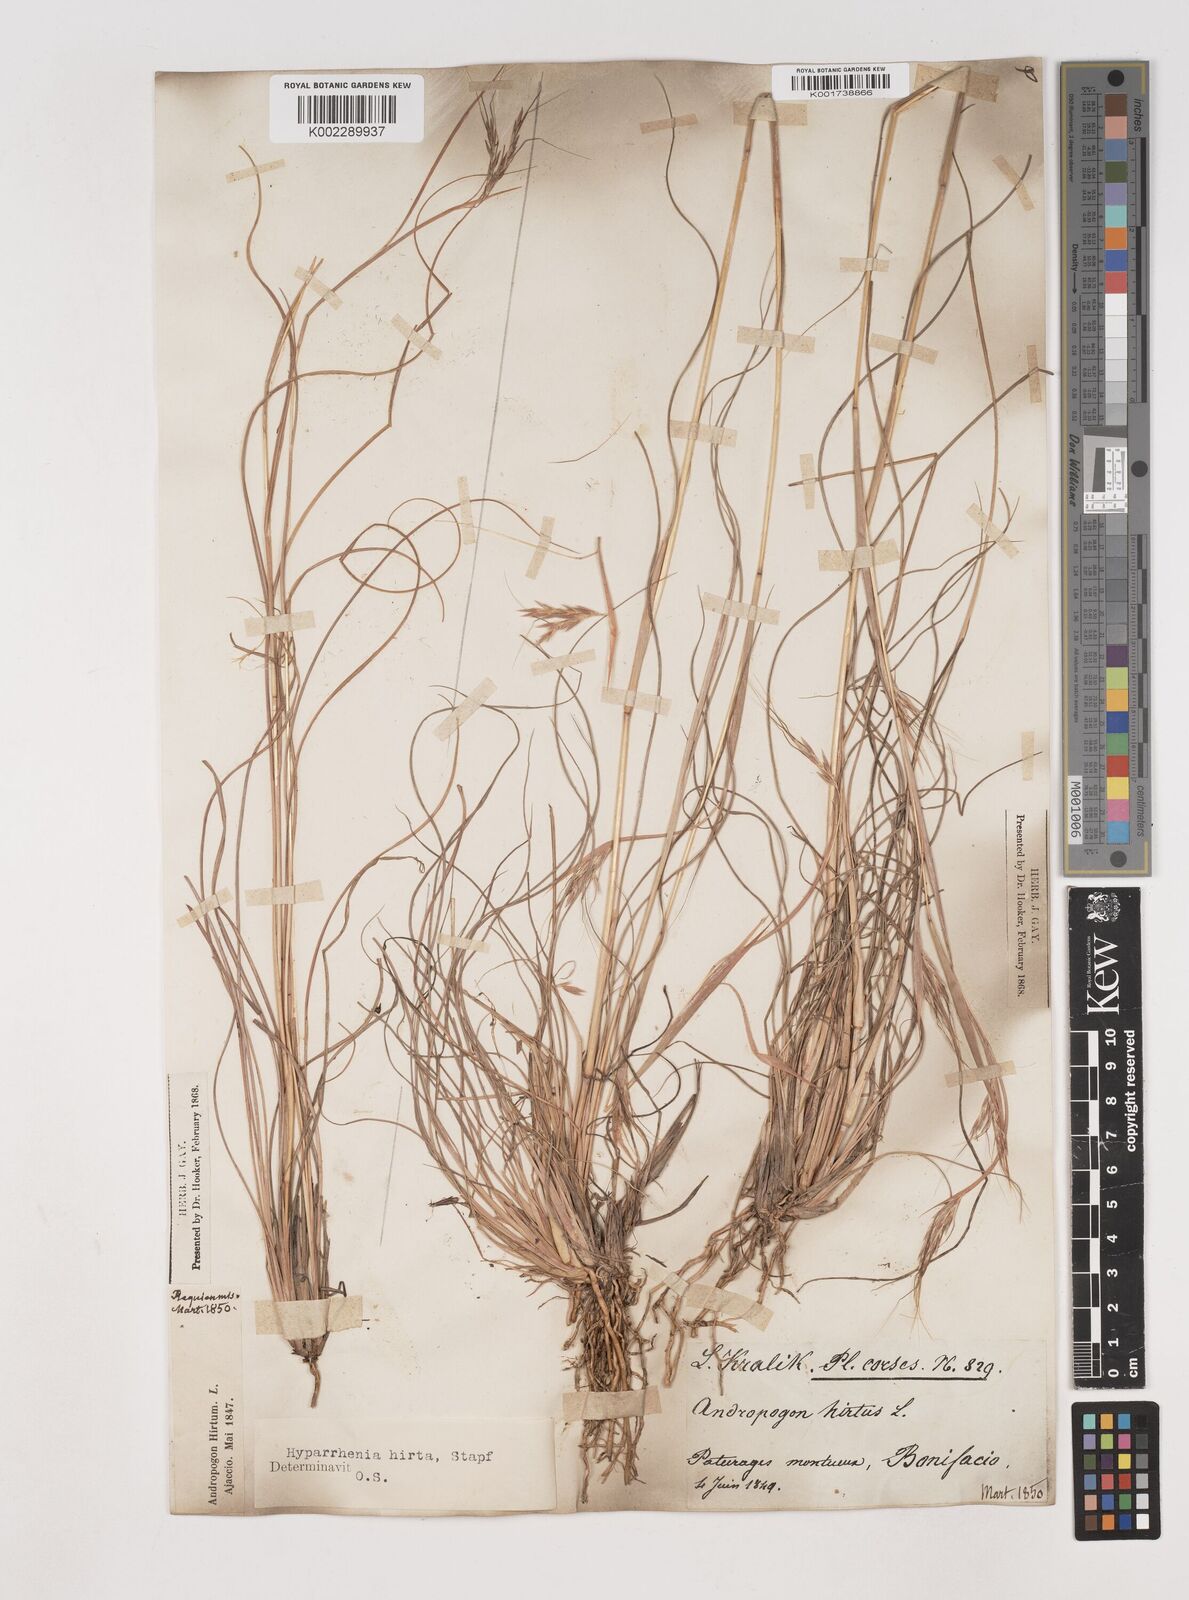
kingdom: Plantae
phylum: Tracheophyta
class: Liliopsida
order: Poales
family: Poaceae
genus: Hyparrhenia
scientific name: Hyparrhenia hirta
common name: Thatching grass
